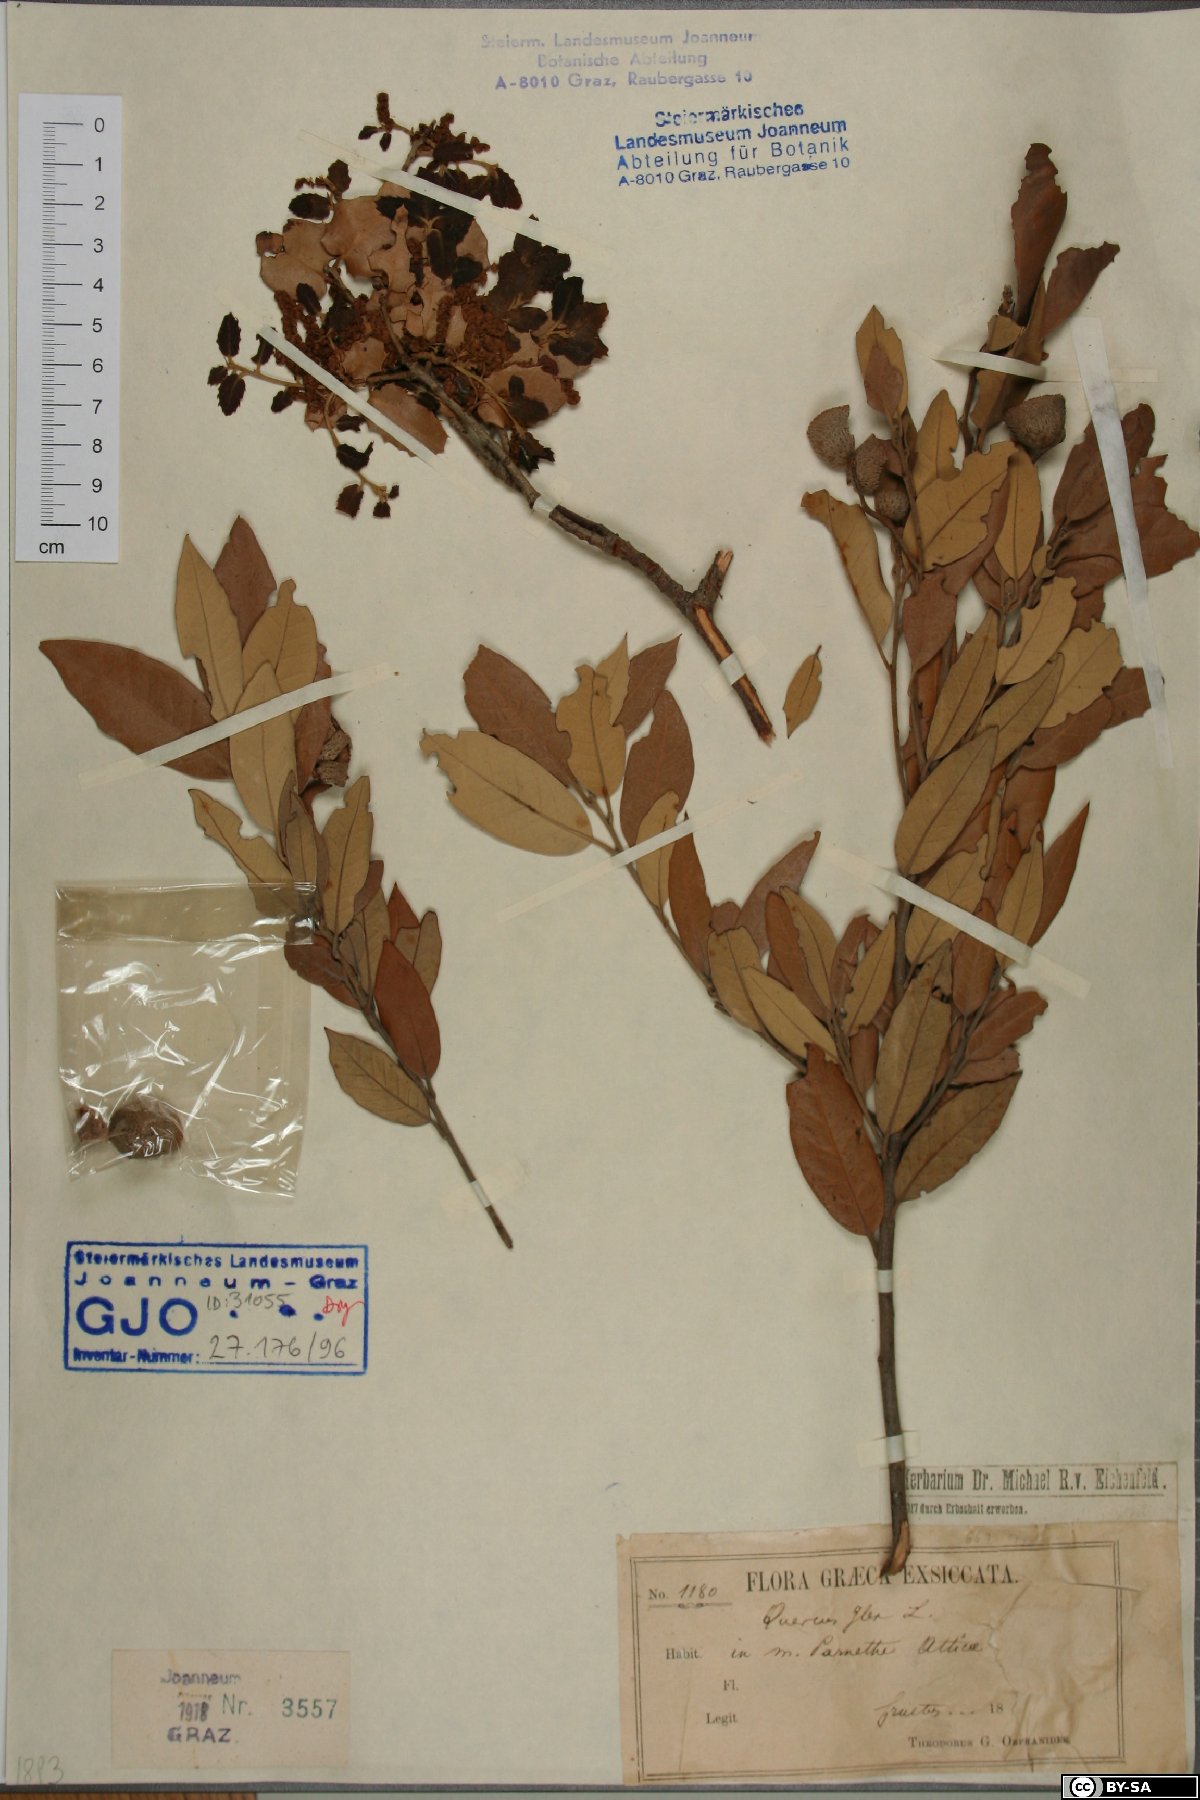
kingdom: Plantae
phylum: Tracheophyta
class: Magnoliopsida
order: Fagales
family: Fagaceae
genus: Quercus
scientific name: Quercus ilex
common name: Evergreen oak
